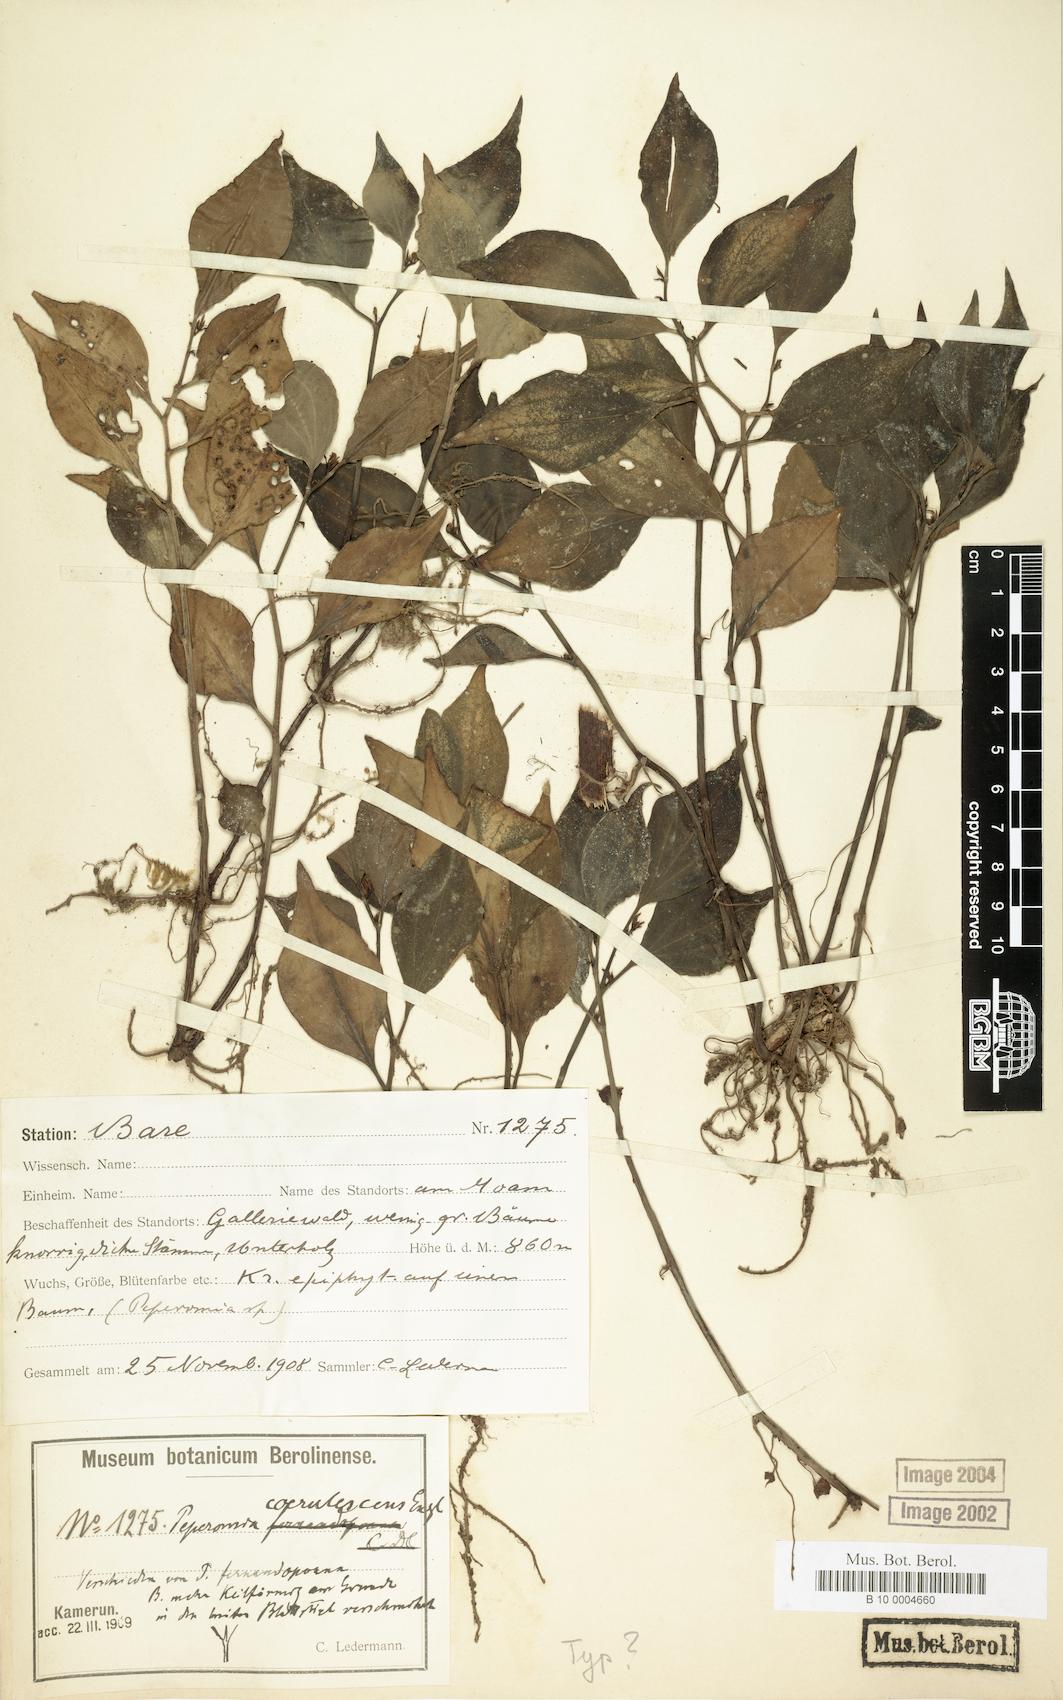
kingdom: Plantae
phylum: Tracheophyta
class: Magnoliopsida
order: Piperales
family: Piperaceae
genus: Peperomia
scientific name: Peperomia
